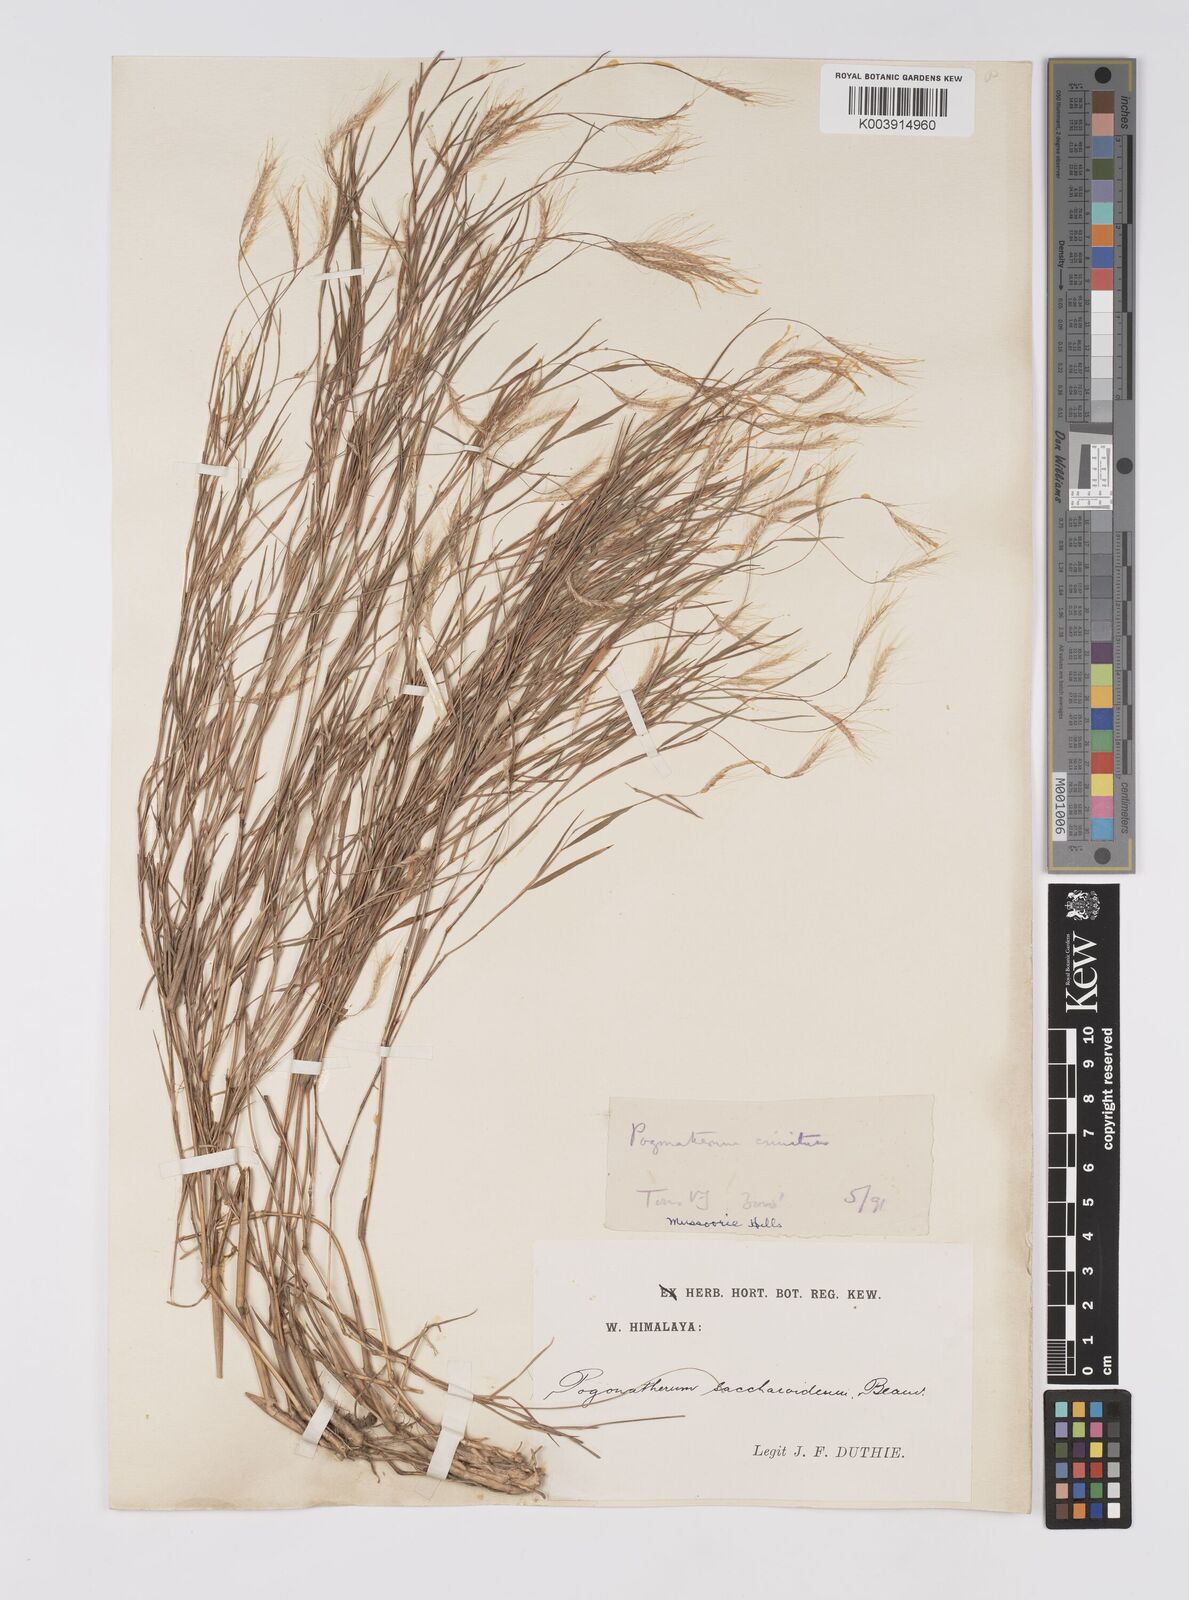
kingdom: Plantae
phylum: Tracheophyta
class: Liliopsida
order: Poales
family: Poaceae
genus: Pogonatherum
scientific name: Pogonatherum paniceum
